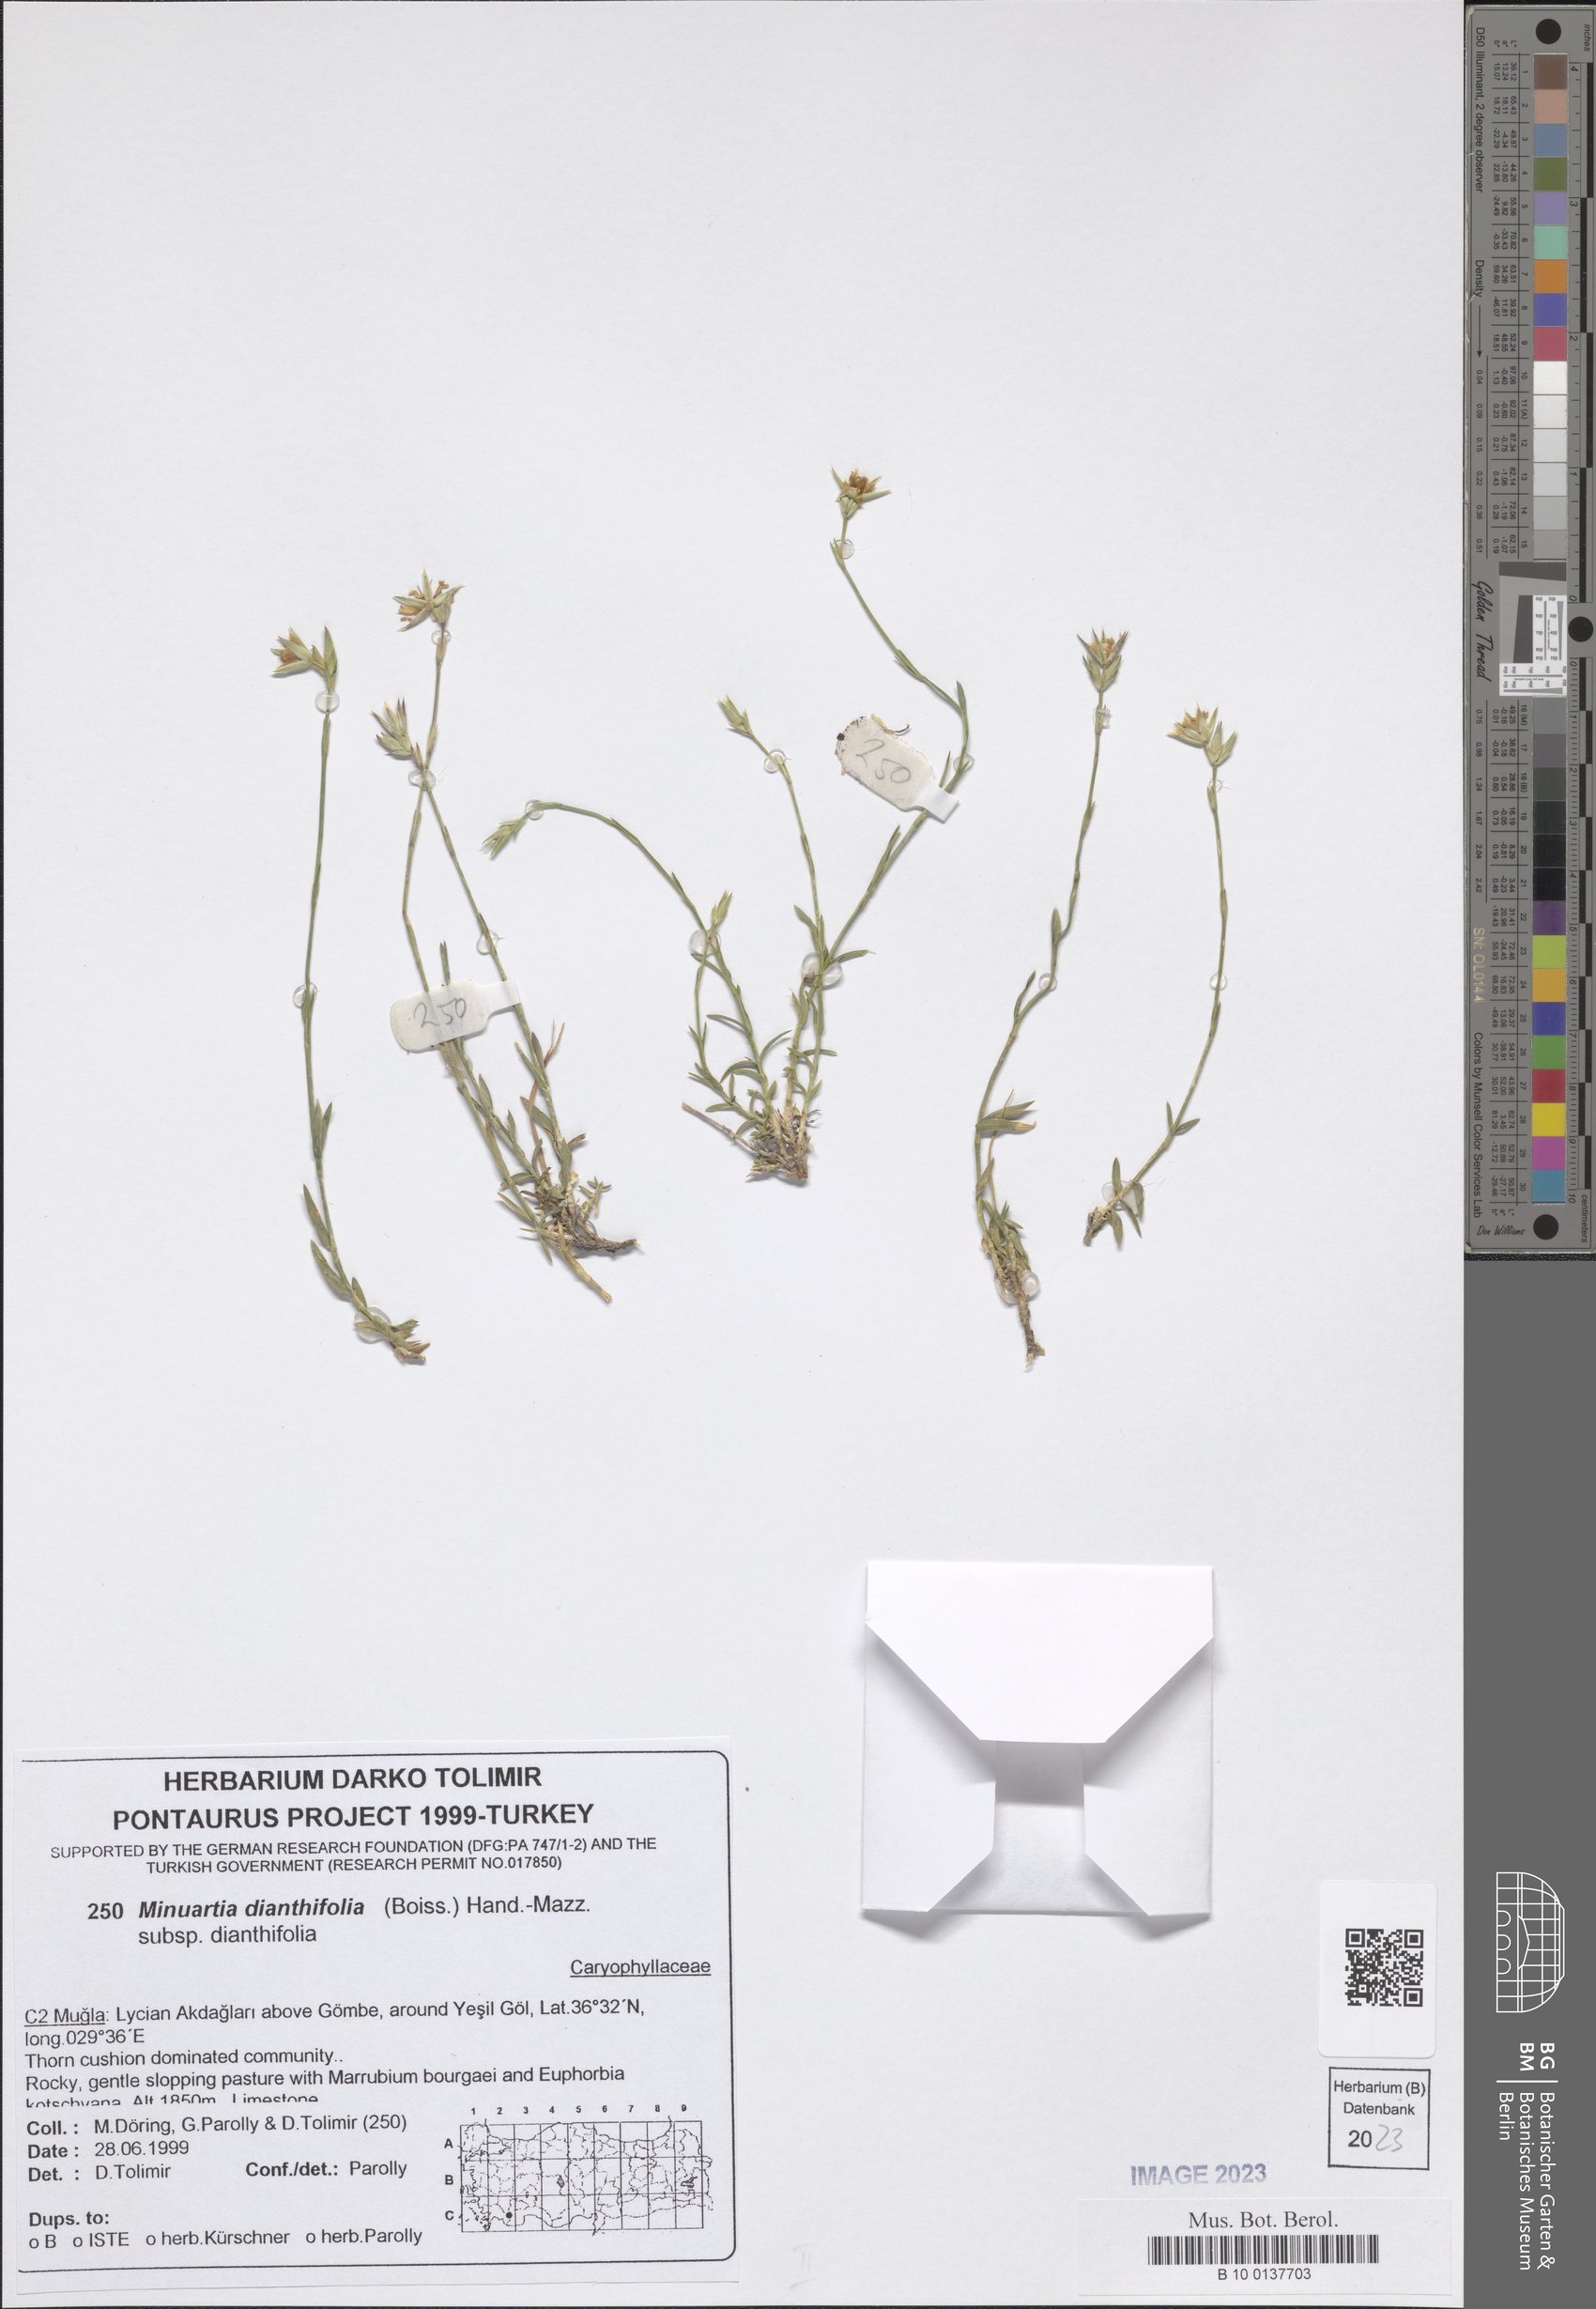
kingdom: Plantae
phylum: Tracheophyta
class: Magnoliopsida
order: Caryophyllales
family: Caryophyllaceae
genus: Minuartiella
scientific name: Minuartiella dianthifolia
